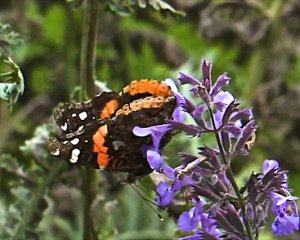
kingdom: Animalia
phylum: Arthropoda
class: Insecta
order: Lepidoptera
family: Nymphalidae
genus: Vanessa
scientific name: Vanessa atalanta
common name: Red Admiral
